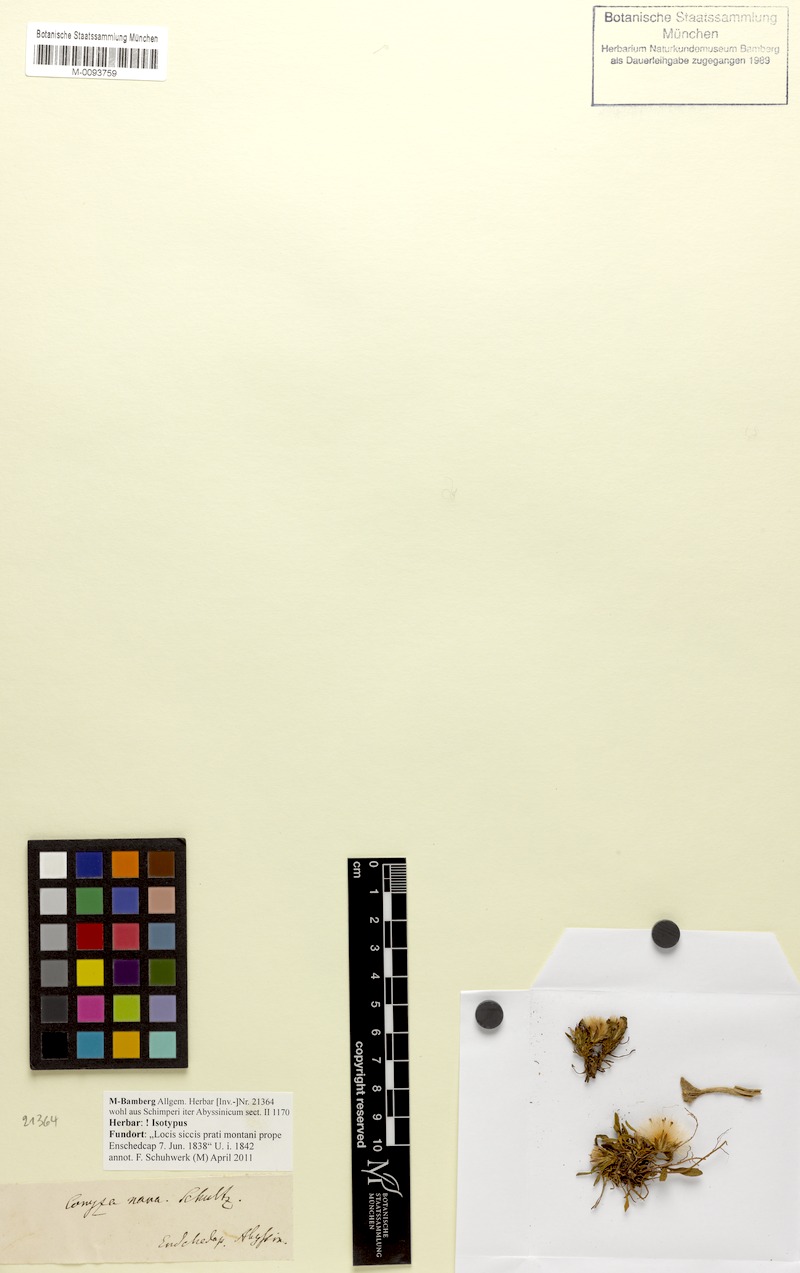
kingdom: Plantae
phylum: Tracheophyta
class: Magnoliopsida
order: Asterales
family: Asteraceae
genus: Conyza
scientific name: Conyza nana
